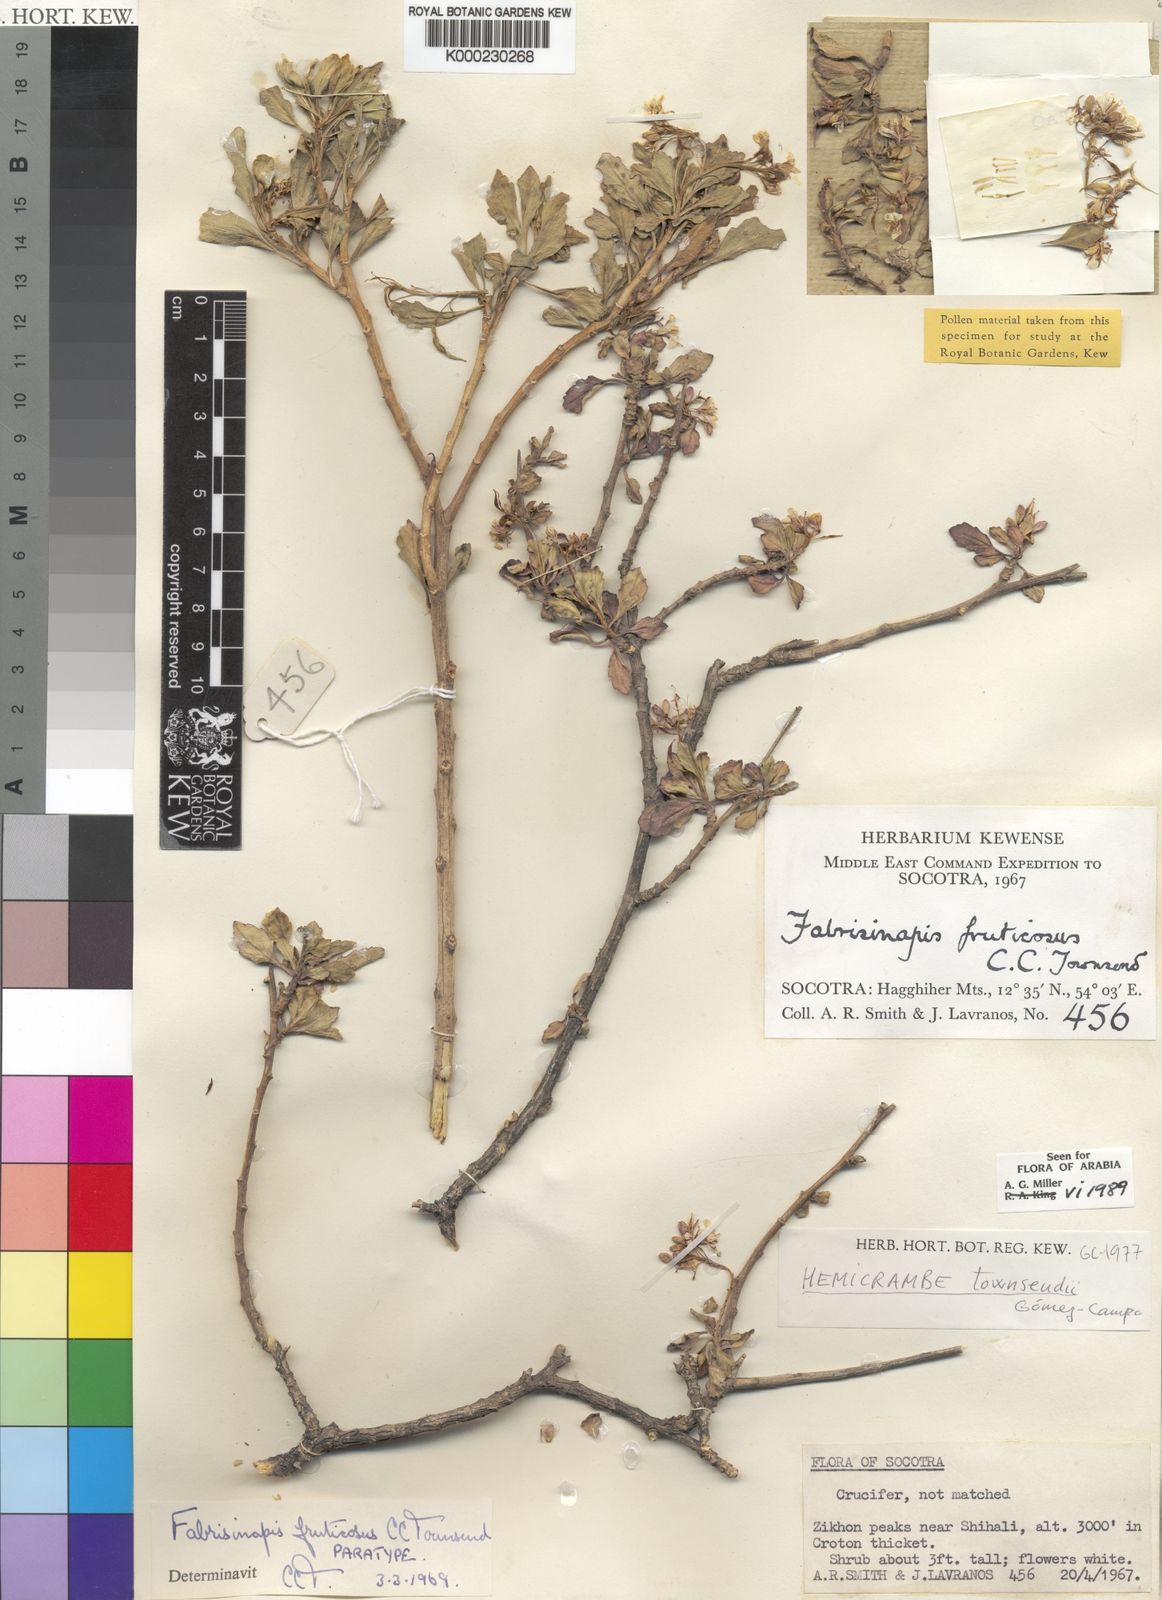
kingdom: Plantae
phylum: Tracheophyta
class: Magnoliopsida
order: Brassicales
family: Brassicaceae
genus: Hemicrambe
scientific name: Hemicrambe
